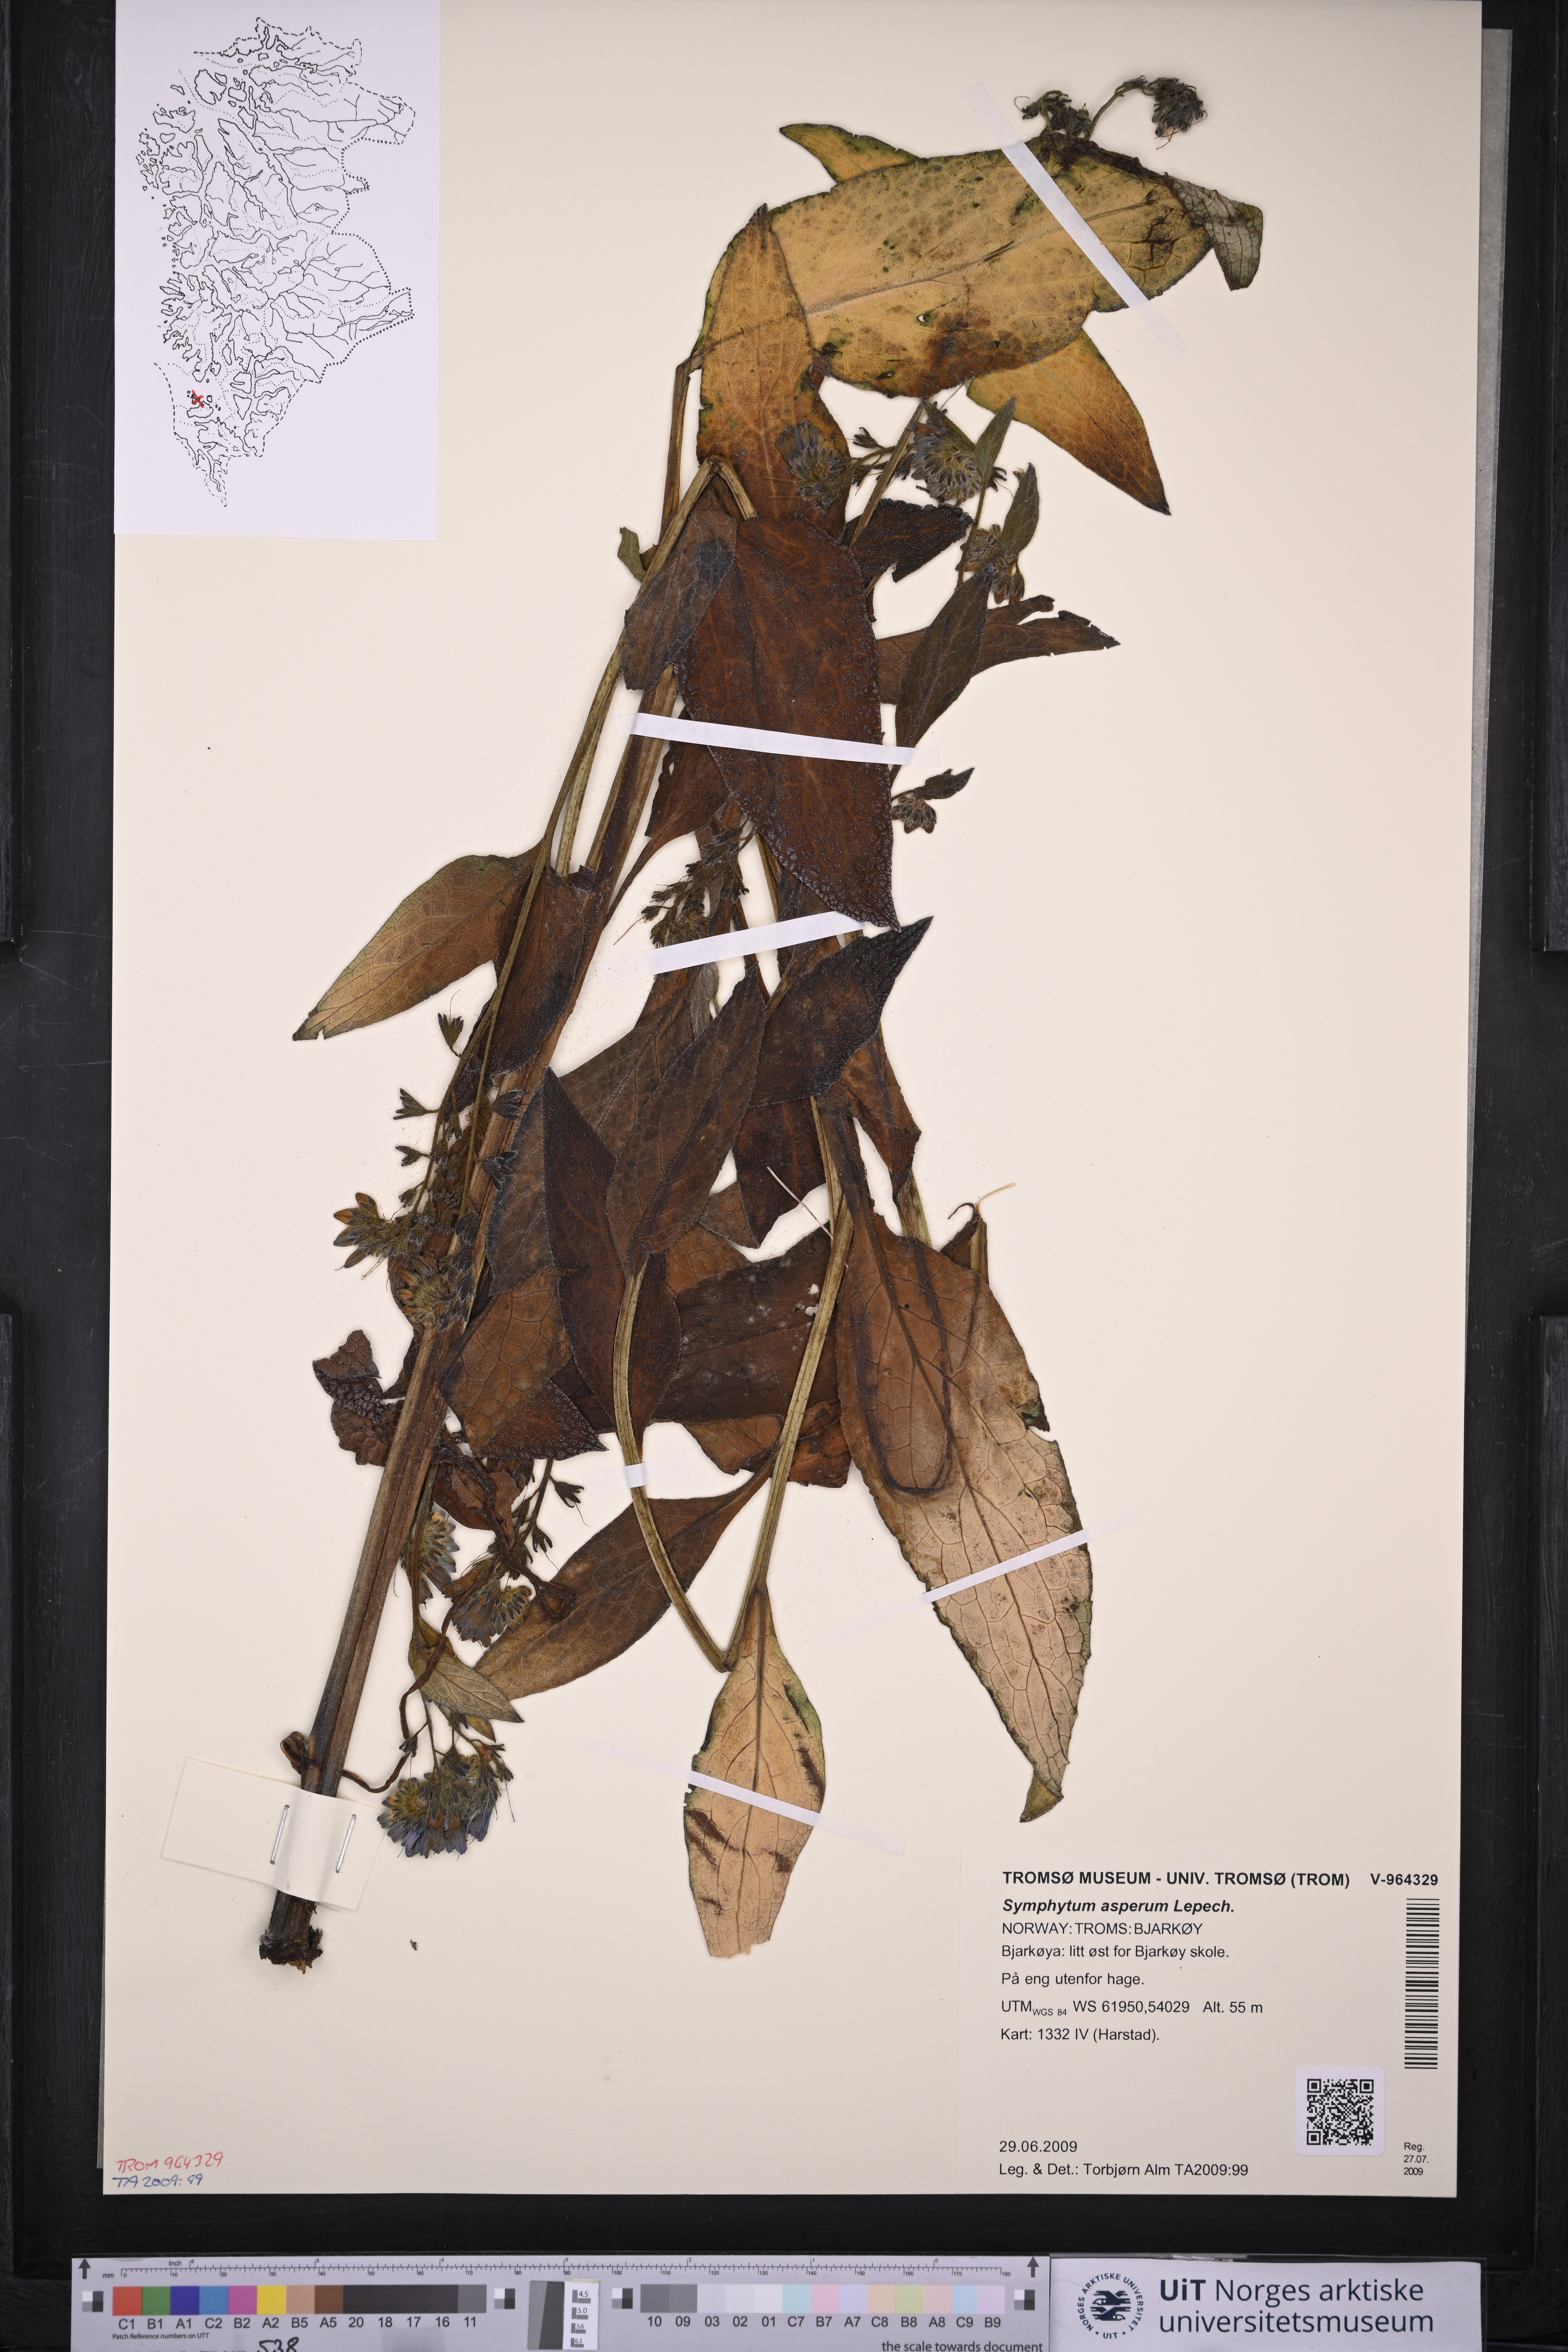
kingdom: Plantae
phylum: Tracheophyta
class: Magnoliopsida
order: Boraginales
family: Boraginaceae
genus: Symphytum
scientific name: Symphytum asperum
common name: Prickly comfrey
